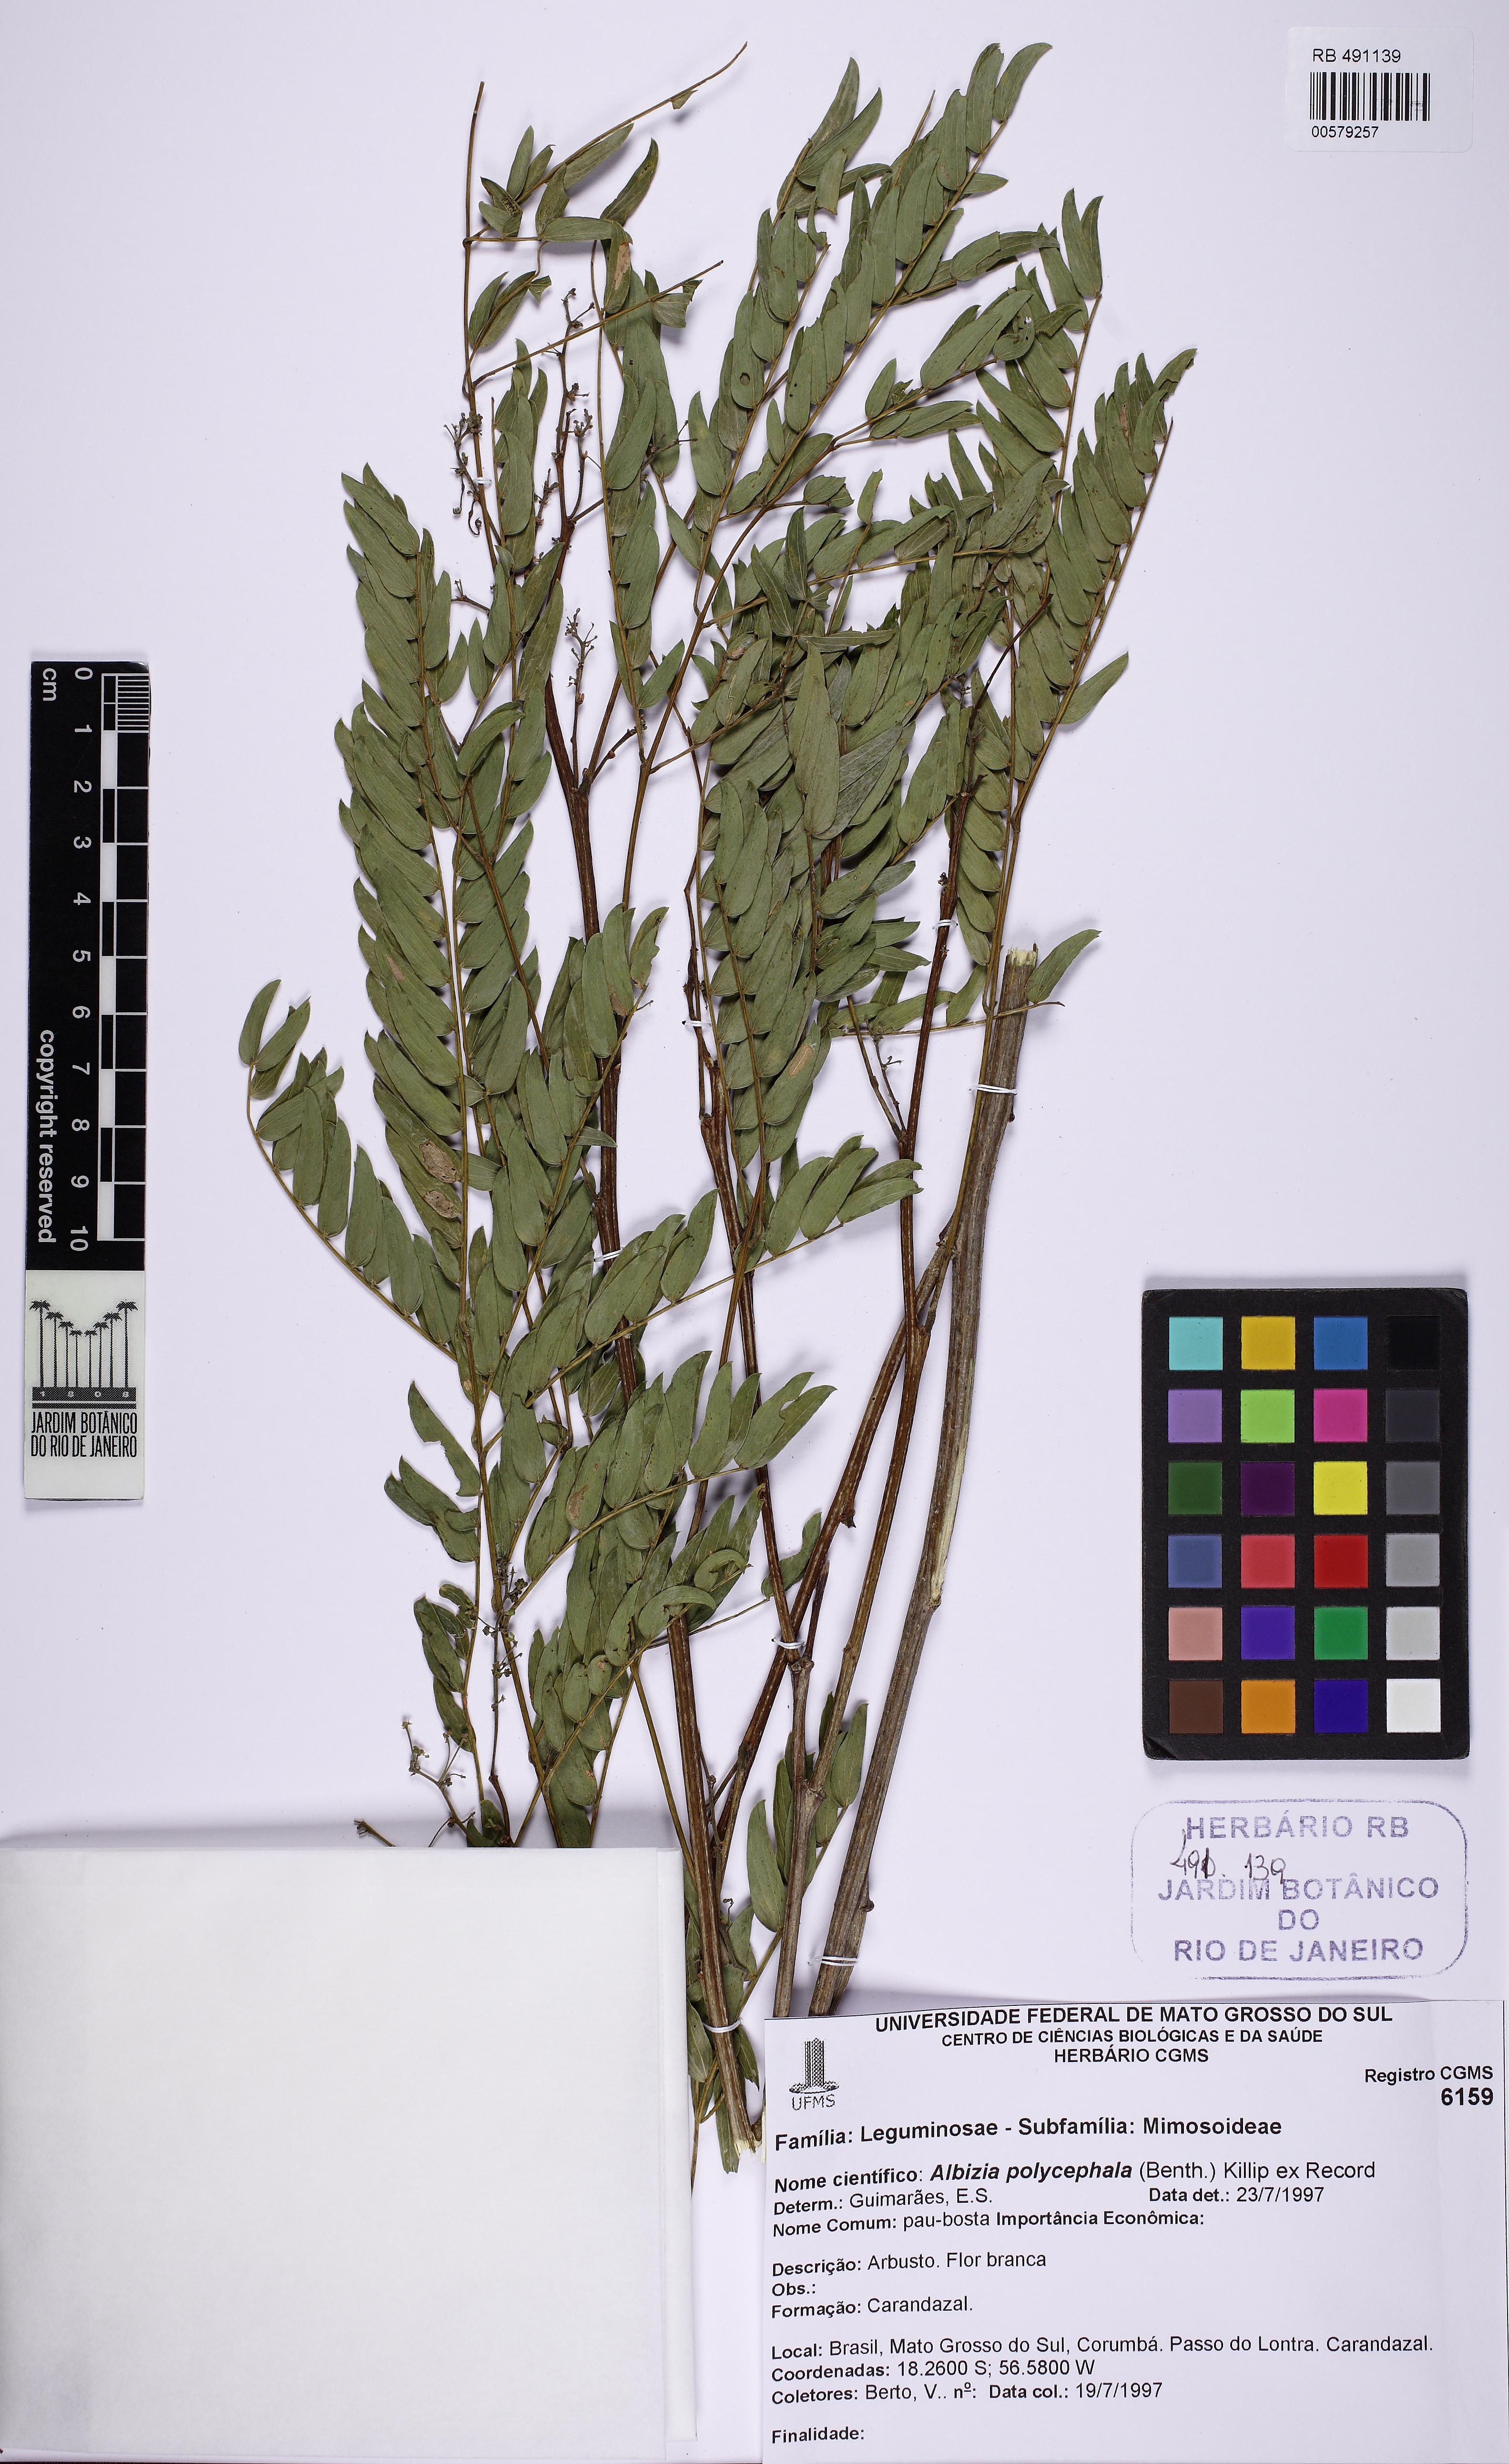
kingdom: Plantae
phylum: Tracheophyta
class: Magnoliopsida
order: Fabales
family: Fabaceae
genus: Albizia
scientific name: Albizia polycephala
